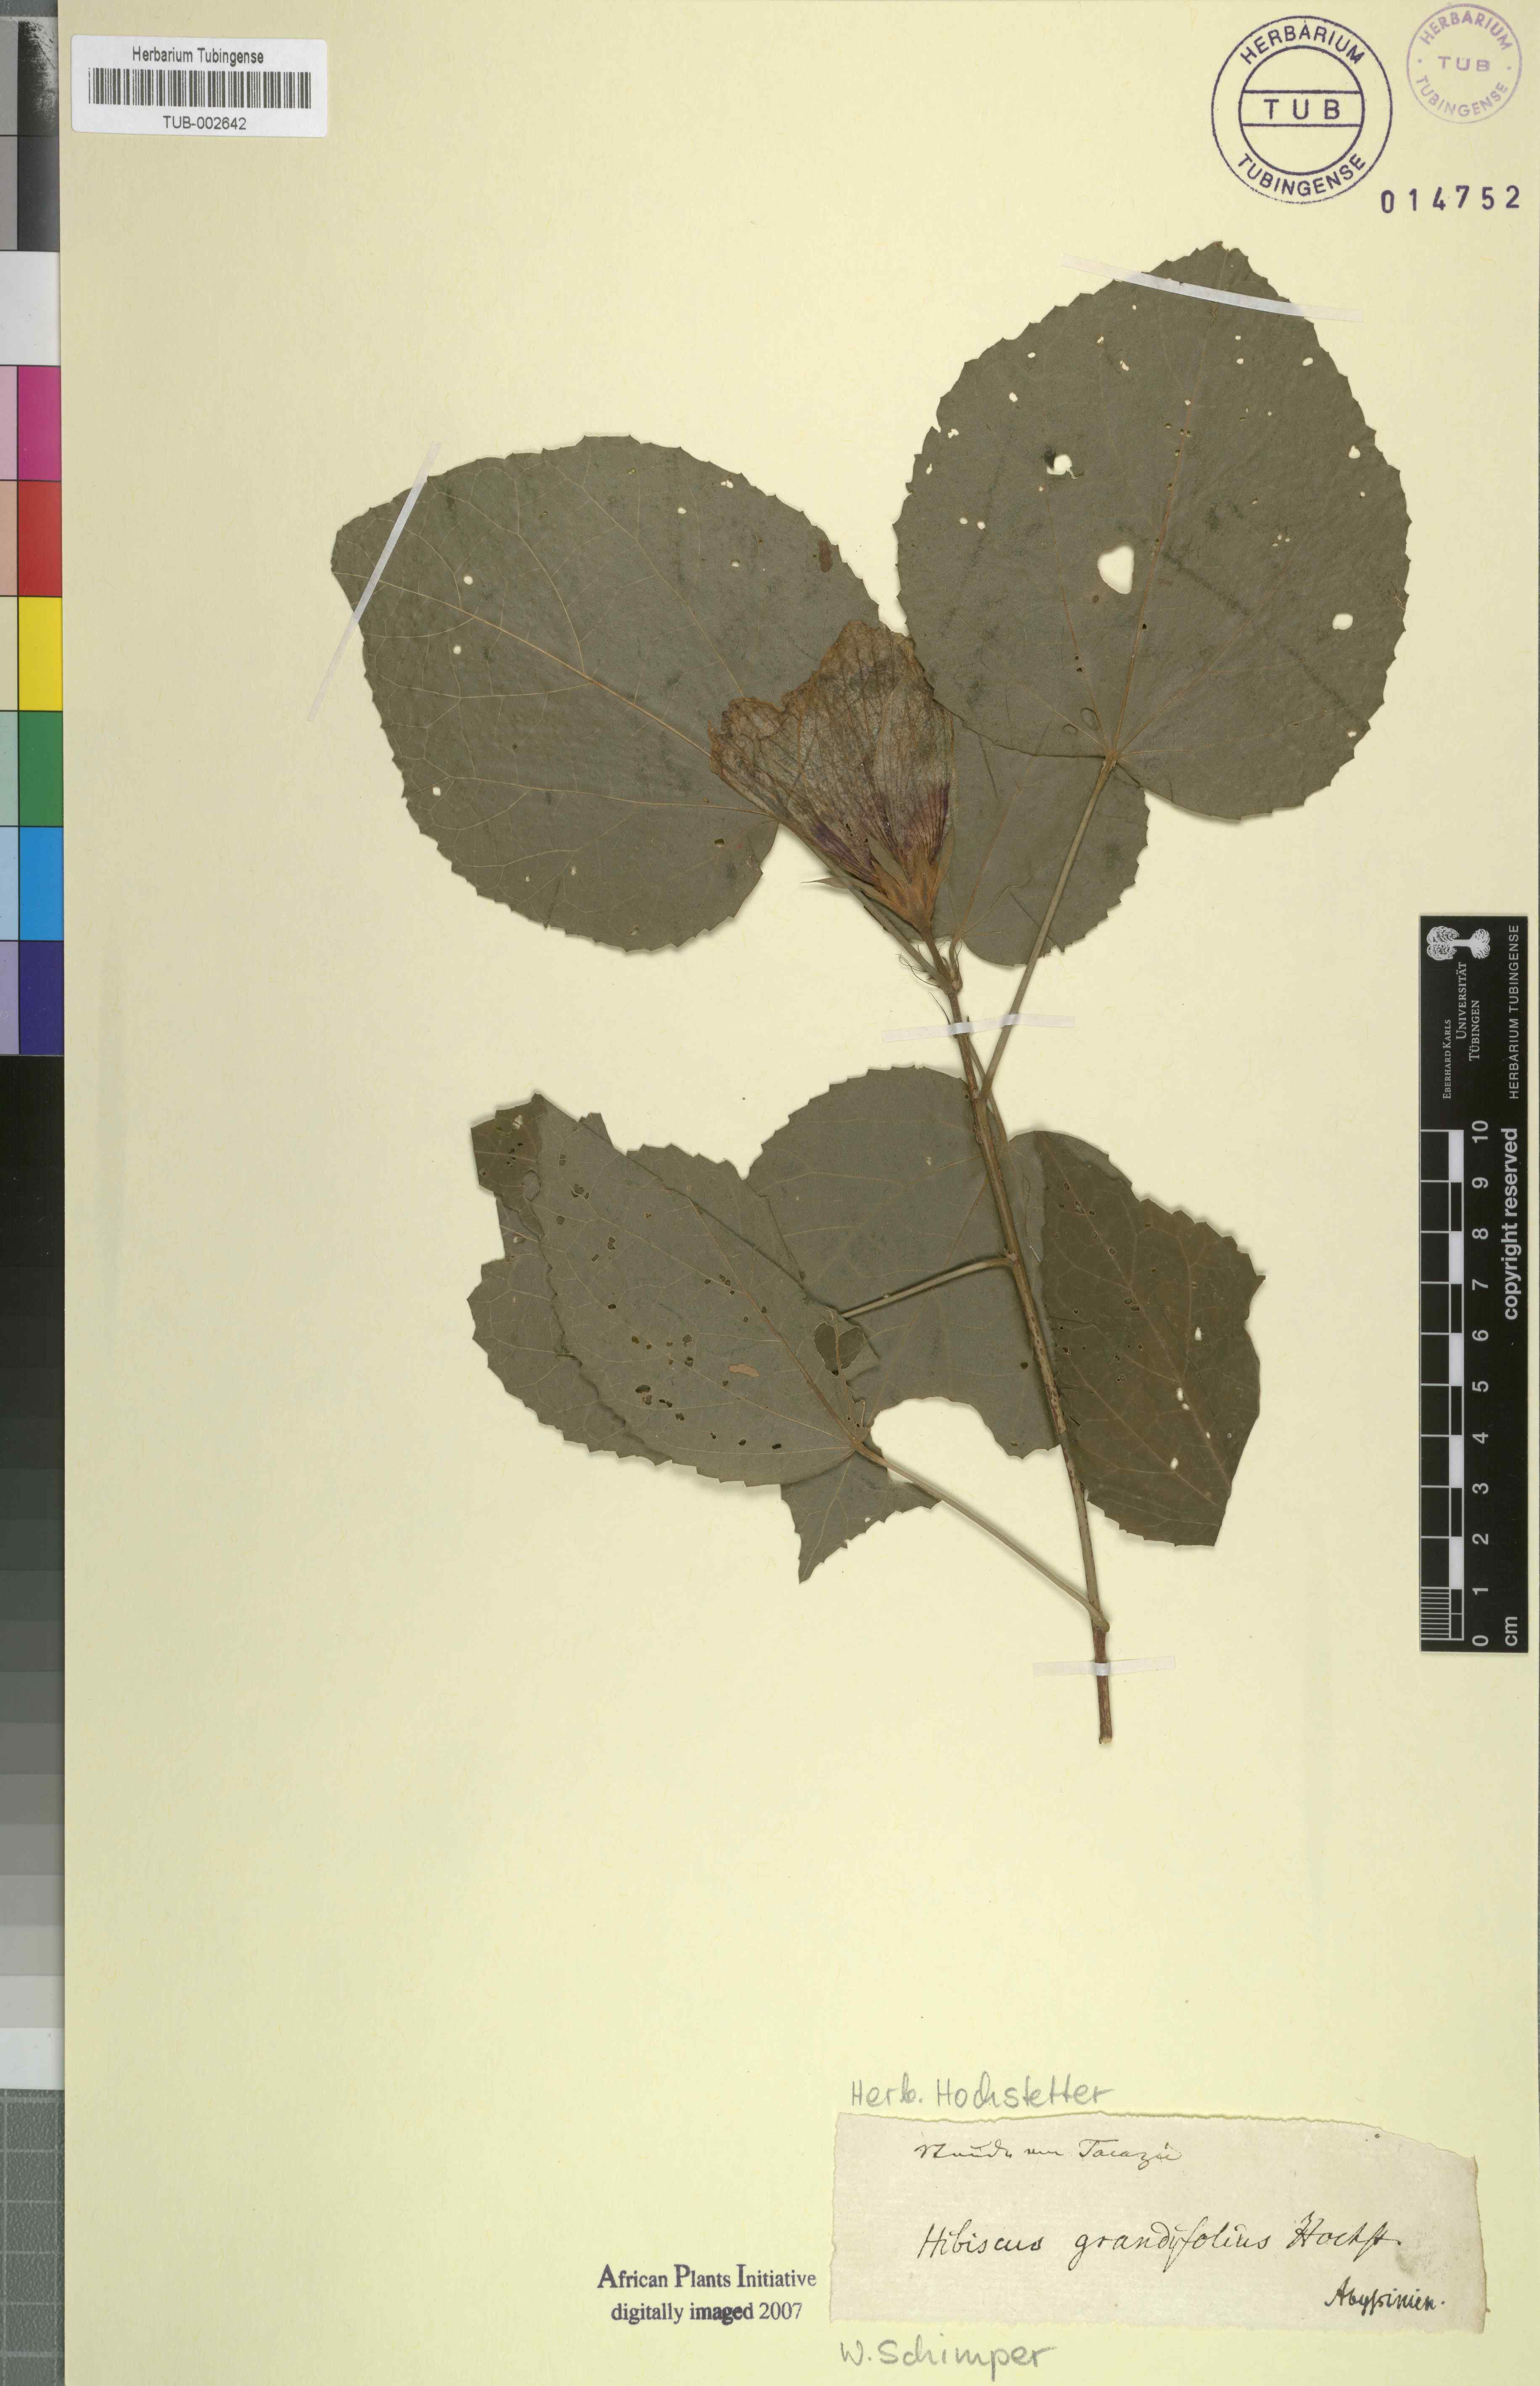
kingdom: Plantae
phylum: Tracheophyta
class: Magnoliopsida
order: Malvales
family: Malvaceae
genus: Hibiscus
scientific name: Hibiscus calyphyllus
